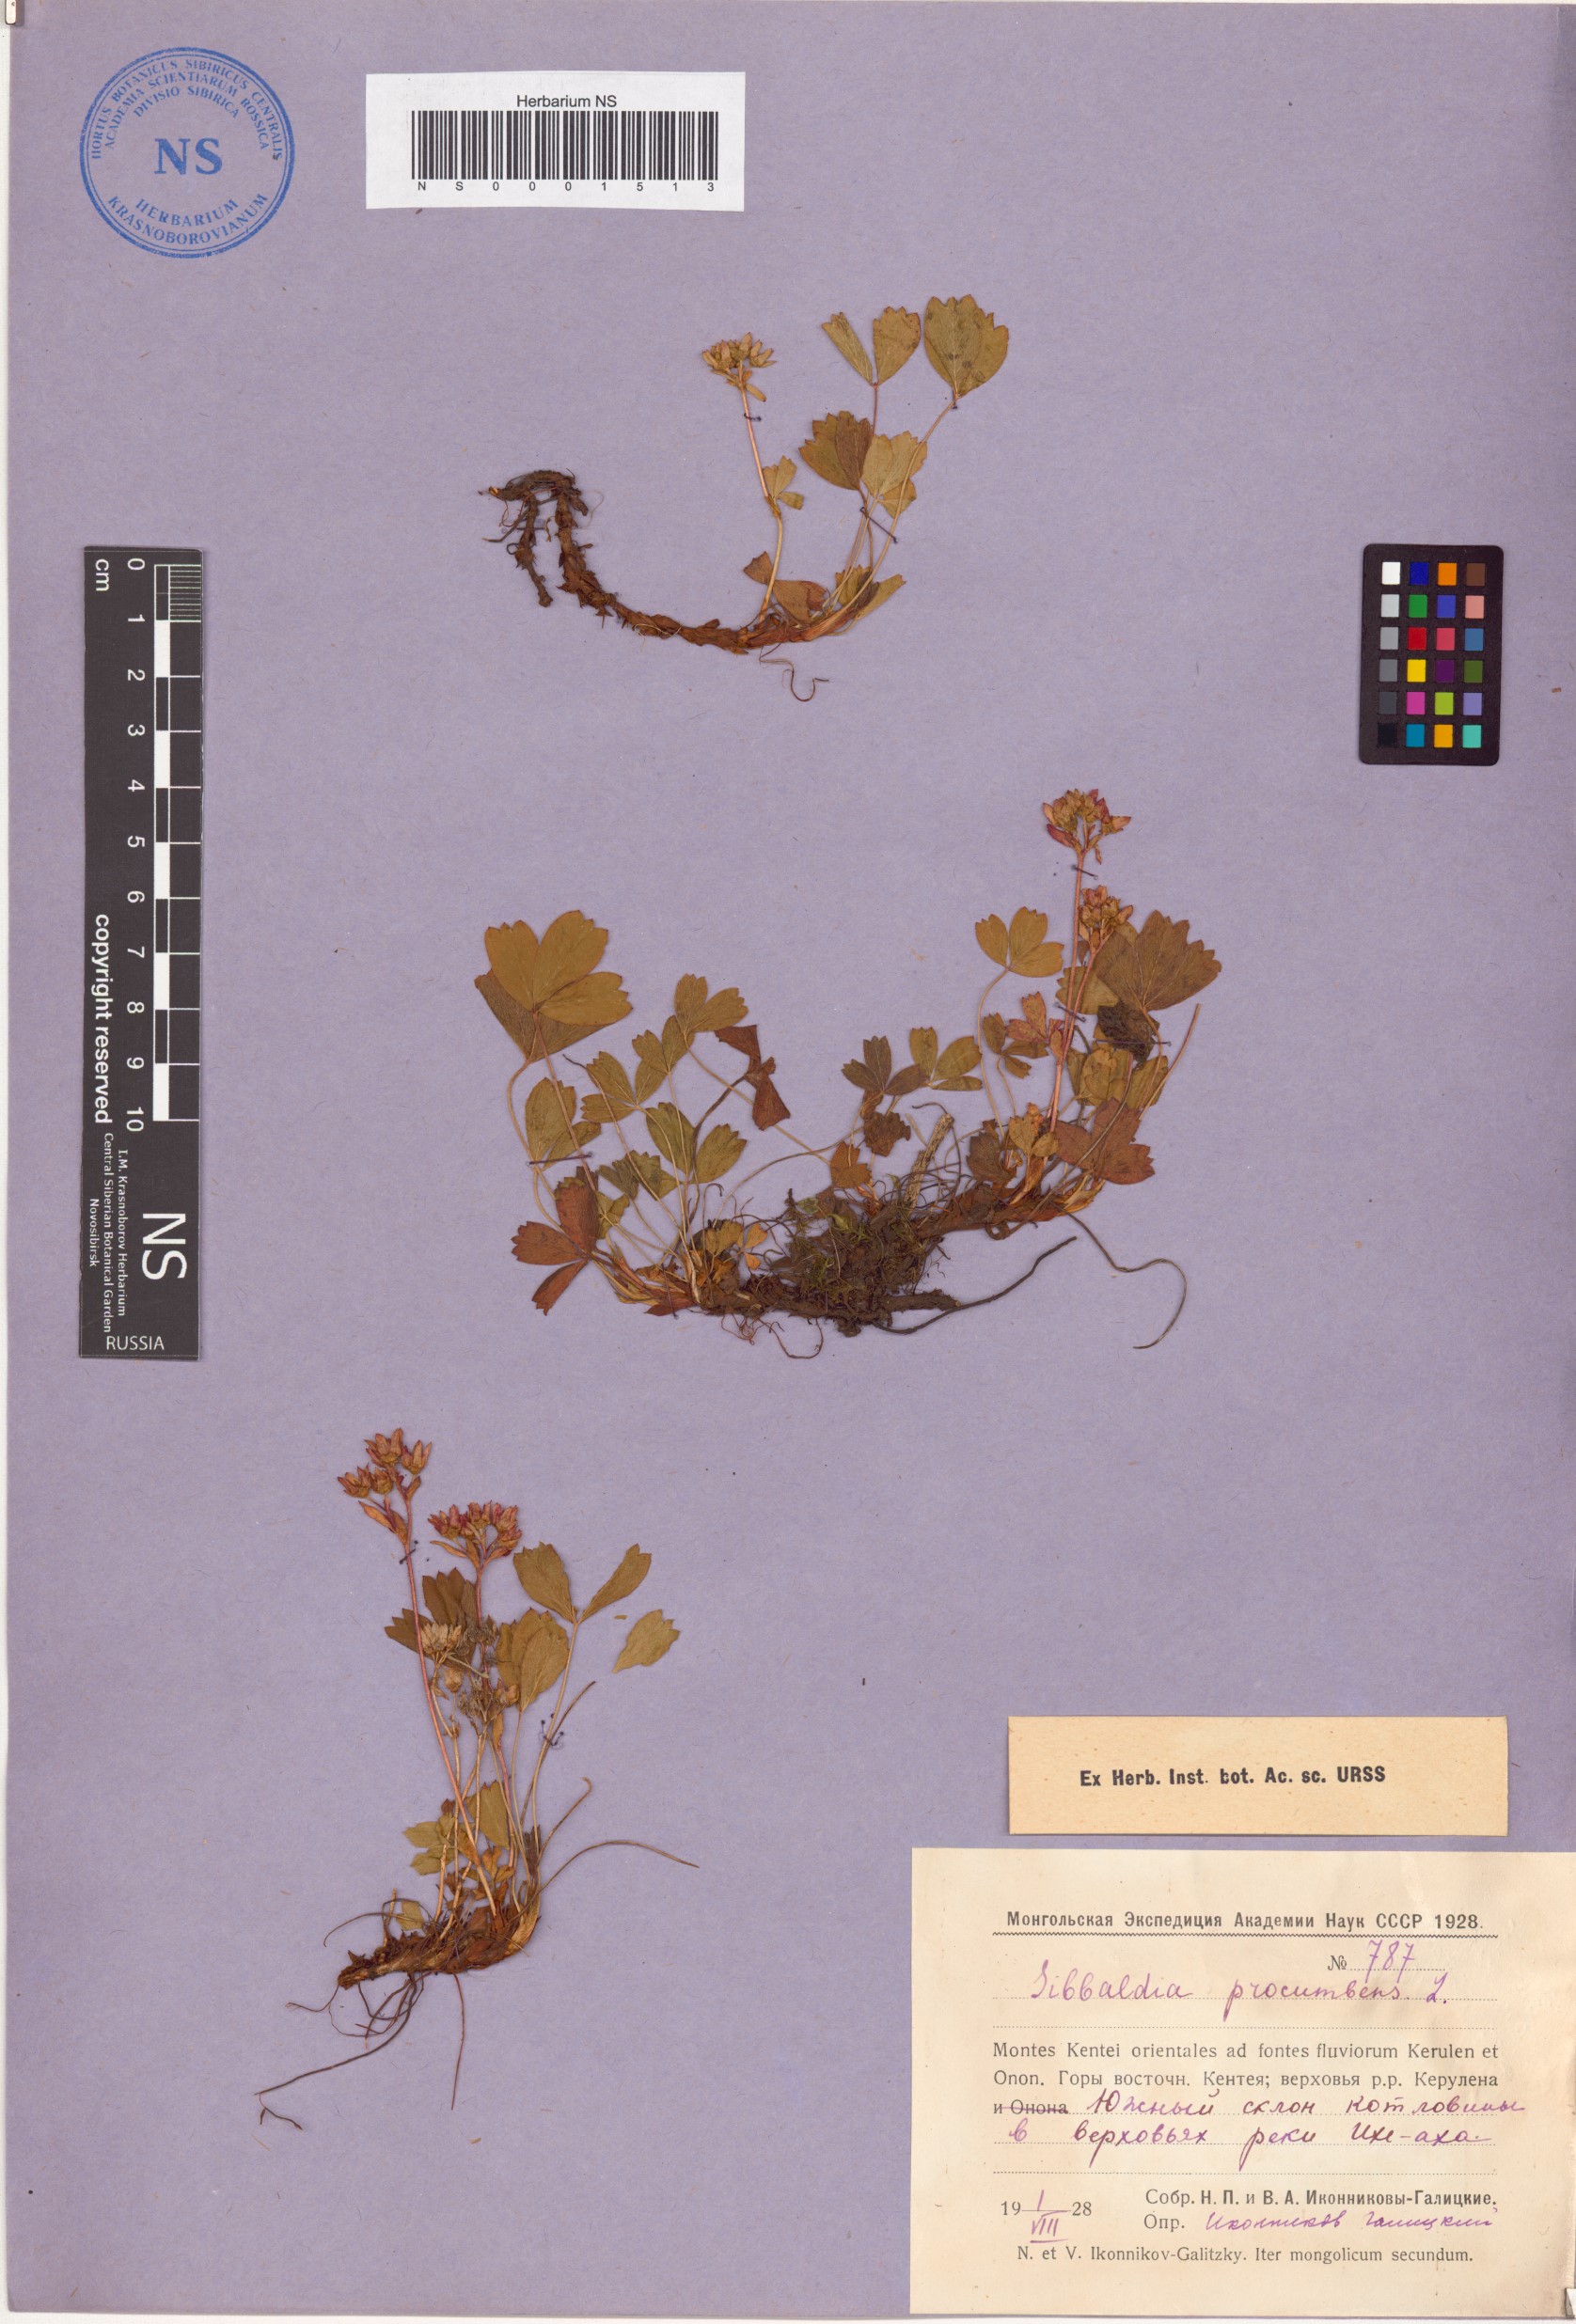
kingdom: Plantae
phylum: Tracheophyta
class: Magnoliopsida
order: Rosales
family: Rosaceae
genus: Sibbaldia
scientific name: Sibbaldia procumbens
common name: Creeping sibbaldia
